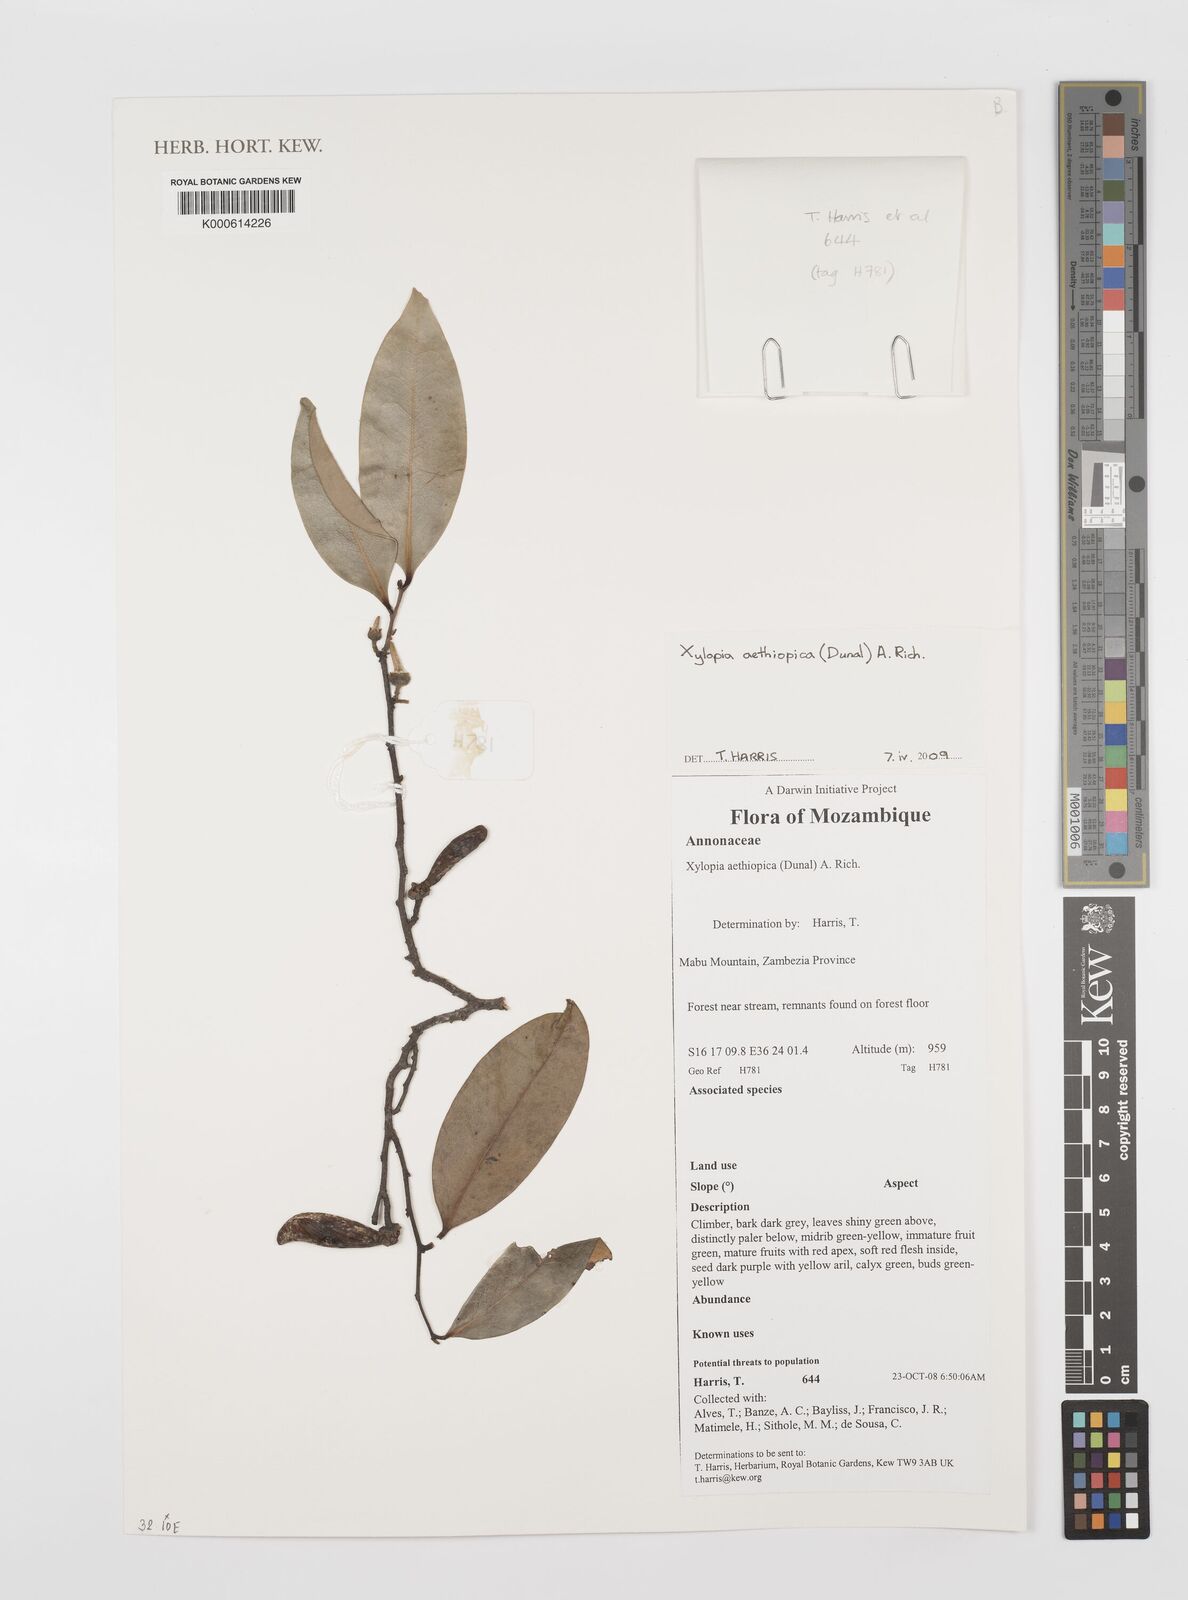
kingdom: Plantae
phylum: Tracheophyta
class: Magnoliopsida
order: Magnoliales
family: Annonaceae
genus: Xylopia
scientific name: Xylopia aethiopica
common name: Ethiopian-pepper
